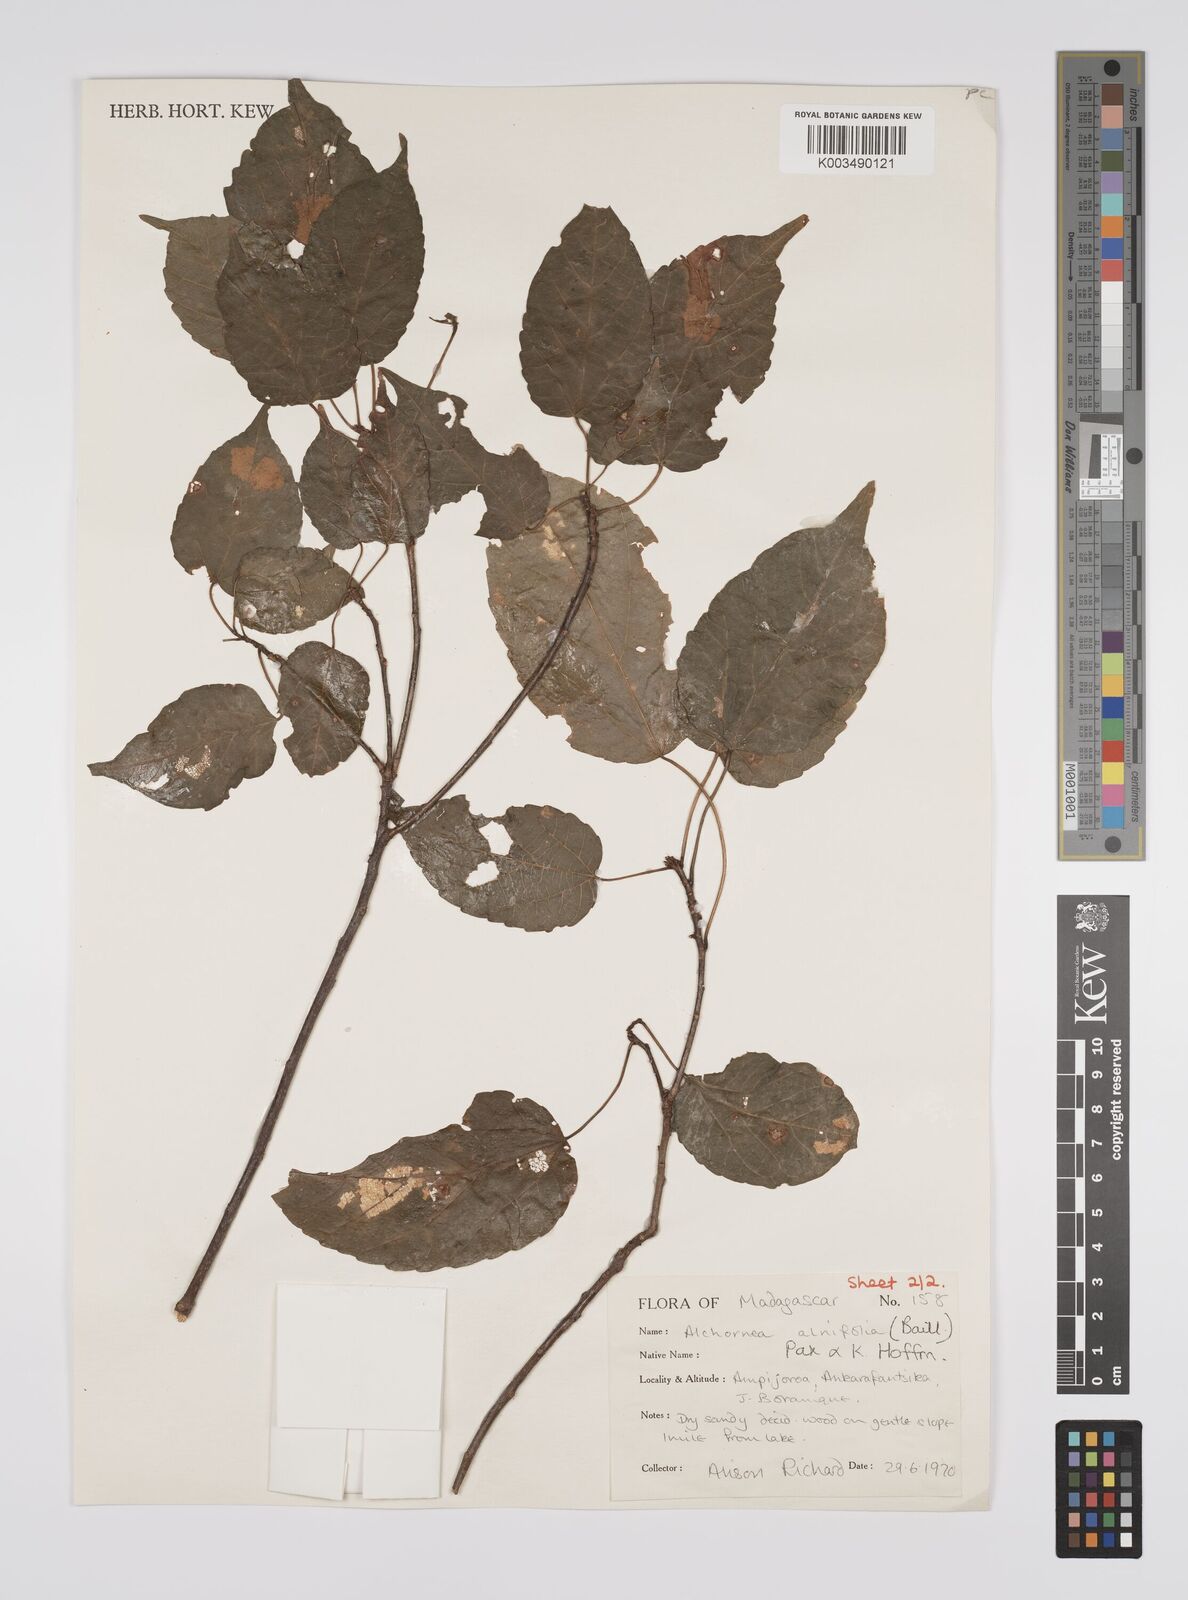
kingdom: Plantae
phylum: Tracheophyta
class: Magnoliopsida
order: Malpighiales
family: Euphorbiaceae
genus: Alchornea
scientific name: Alchornea alnifolia
